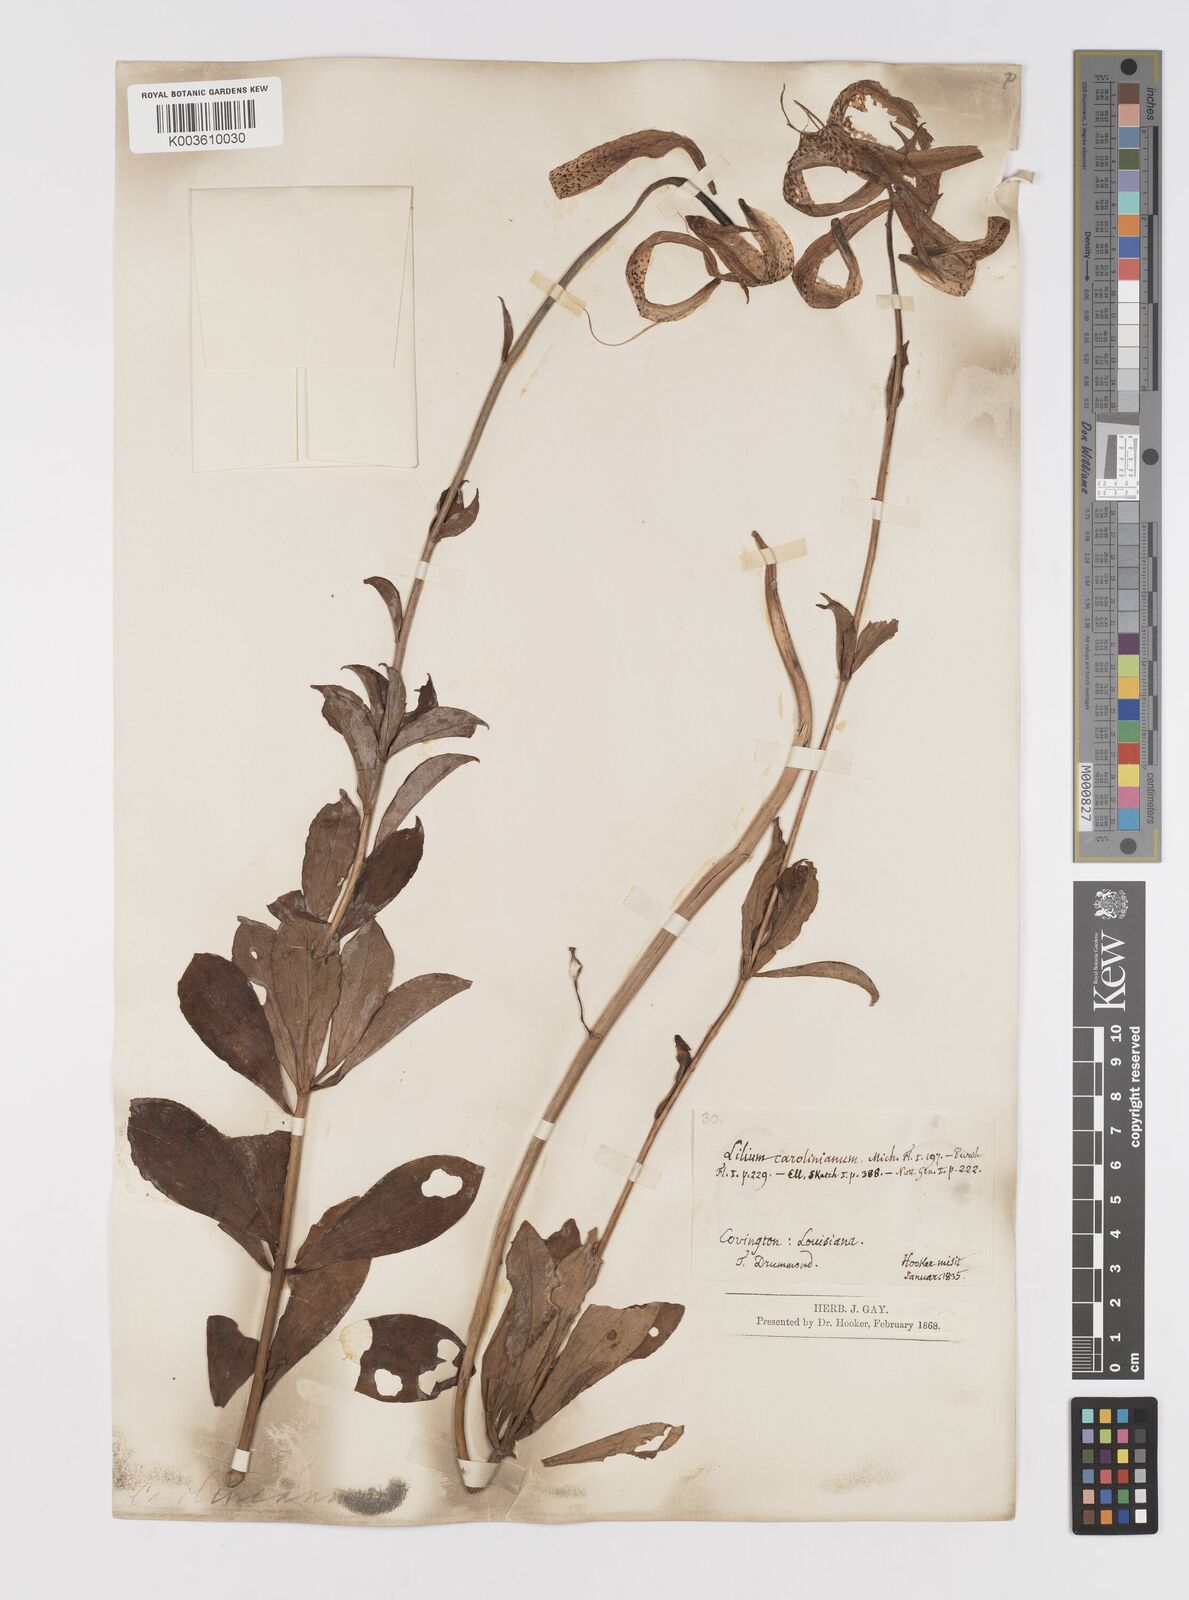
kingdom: Plantae
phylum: Tracheophyta
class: Liliopsida
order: Liliales
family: Liliaceae
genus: Lilium
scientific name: Lilium michauxii
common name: Carolina lily
